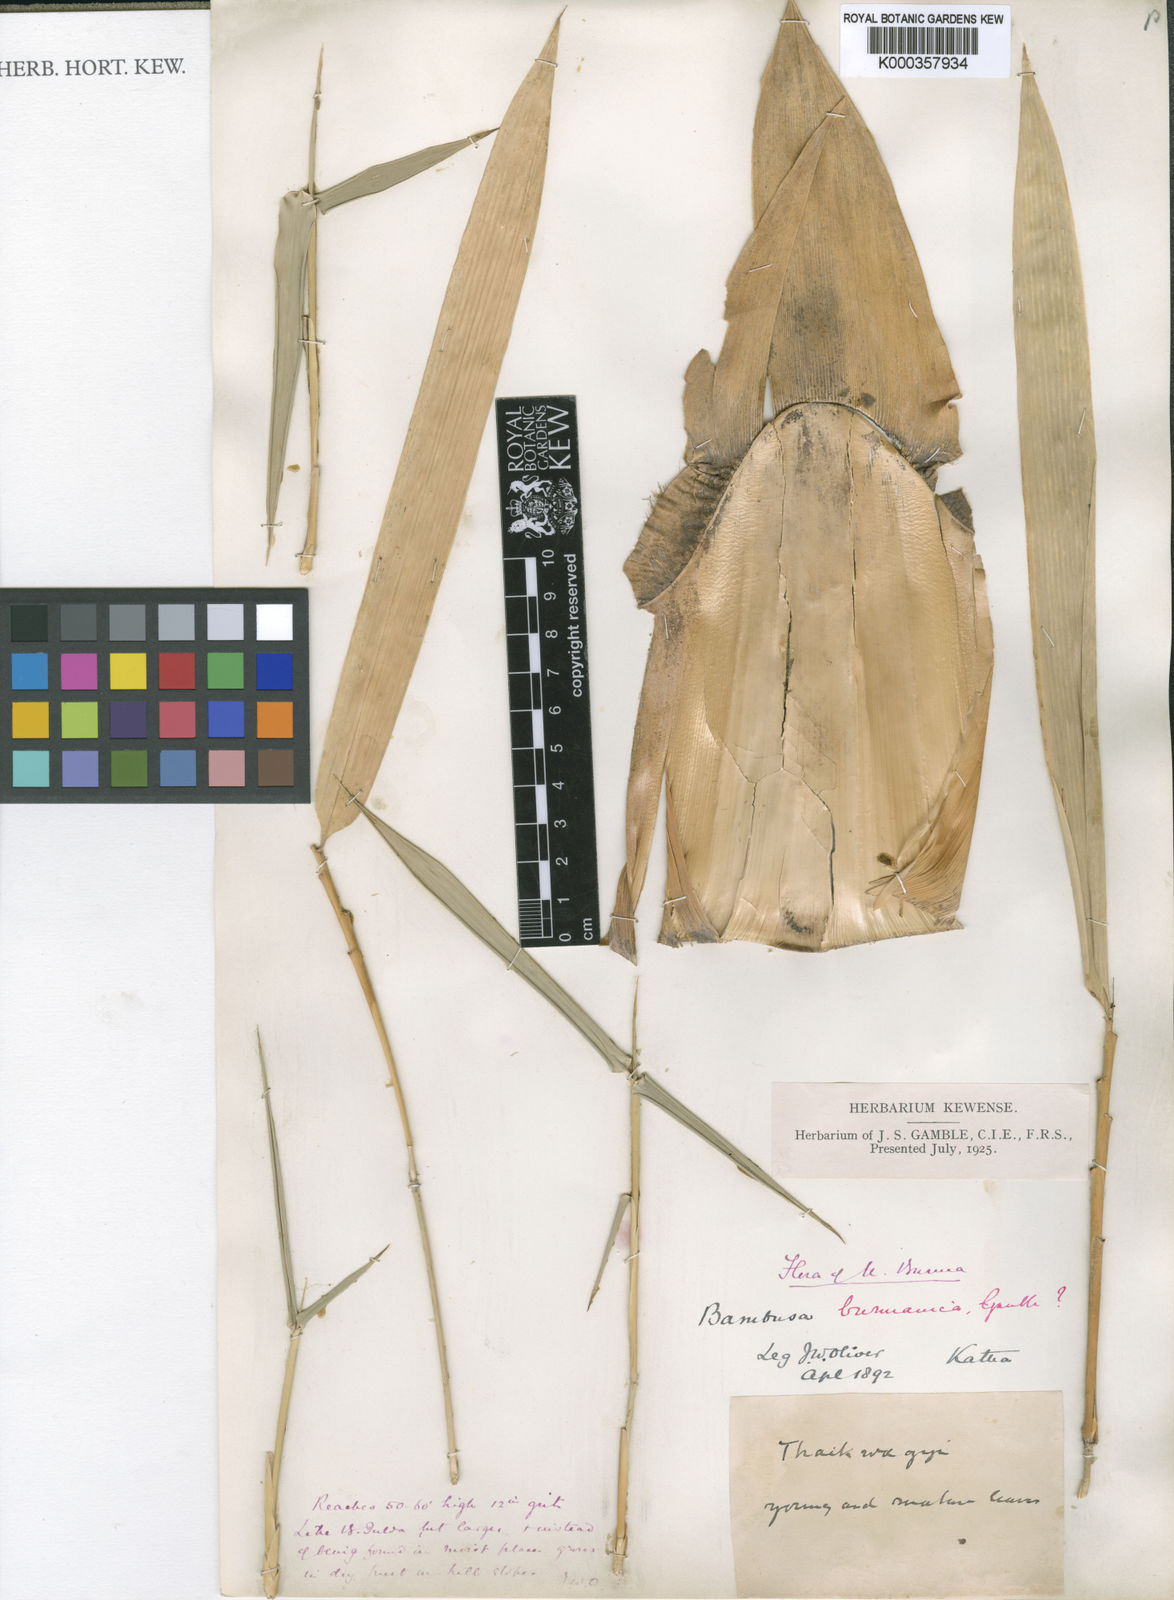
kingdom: Plantae
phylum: Tracheophyta
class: Liliopsida
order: Poales
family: Poaceae
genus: Bambusa
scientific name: Bambusa burmanica
